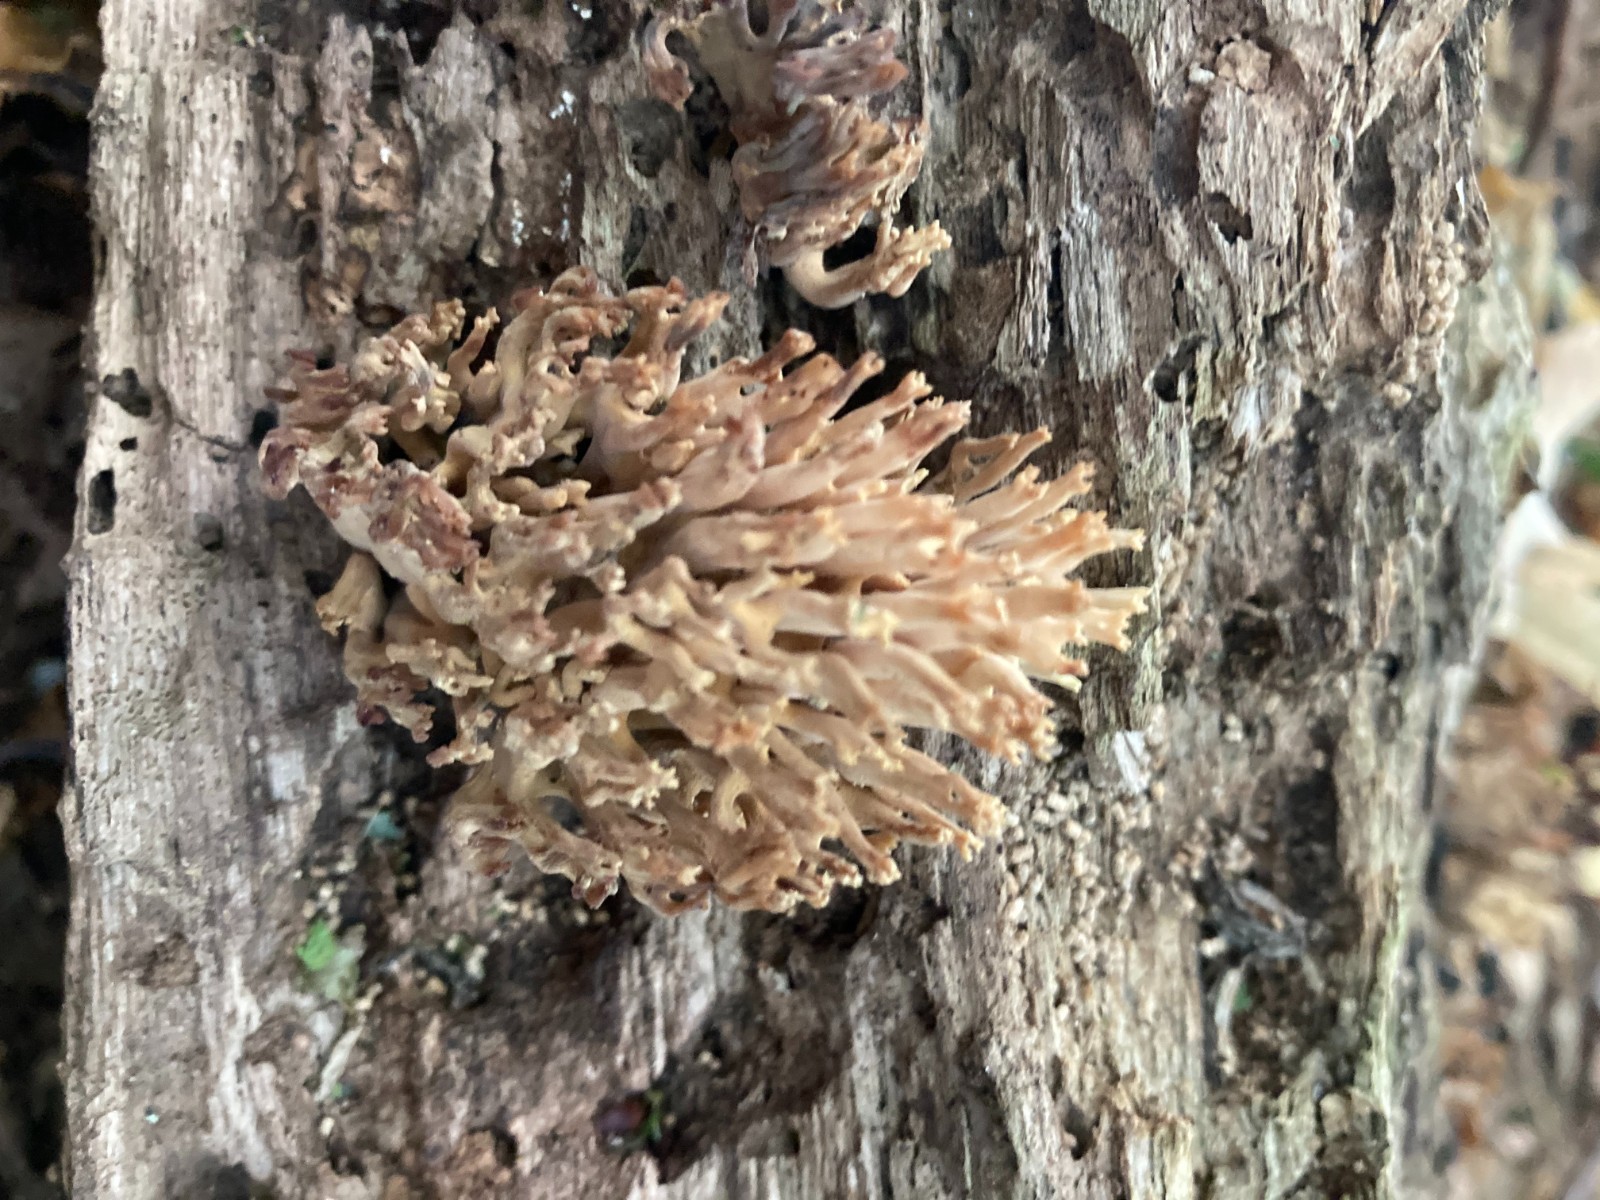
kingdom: Fungi
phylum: Basidiomycota
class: Agaricomycetes
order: Gomphales
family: Gomphaceae
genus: Ramaria
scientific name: Ramaria stricta
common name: rank koralsvamp
